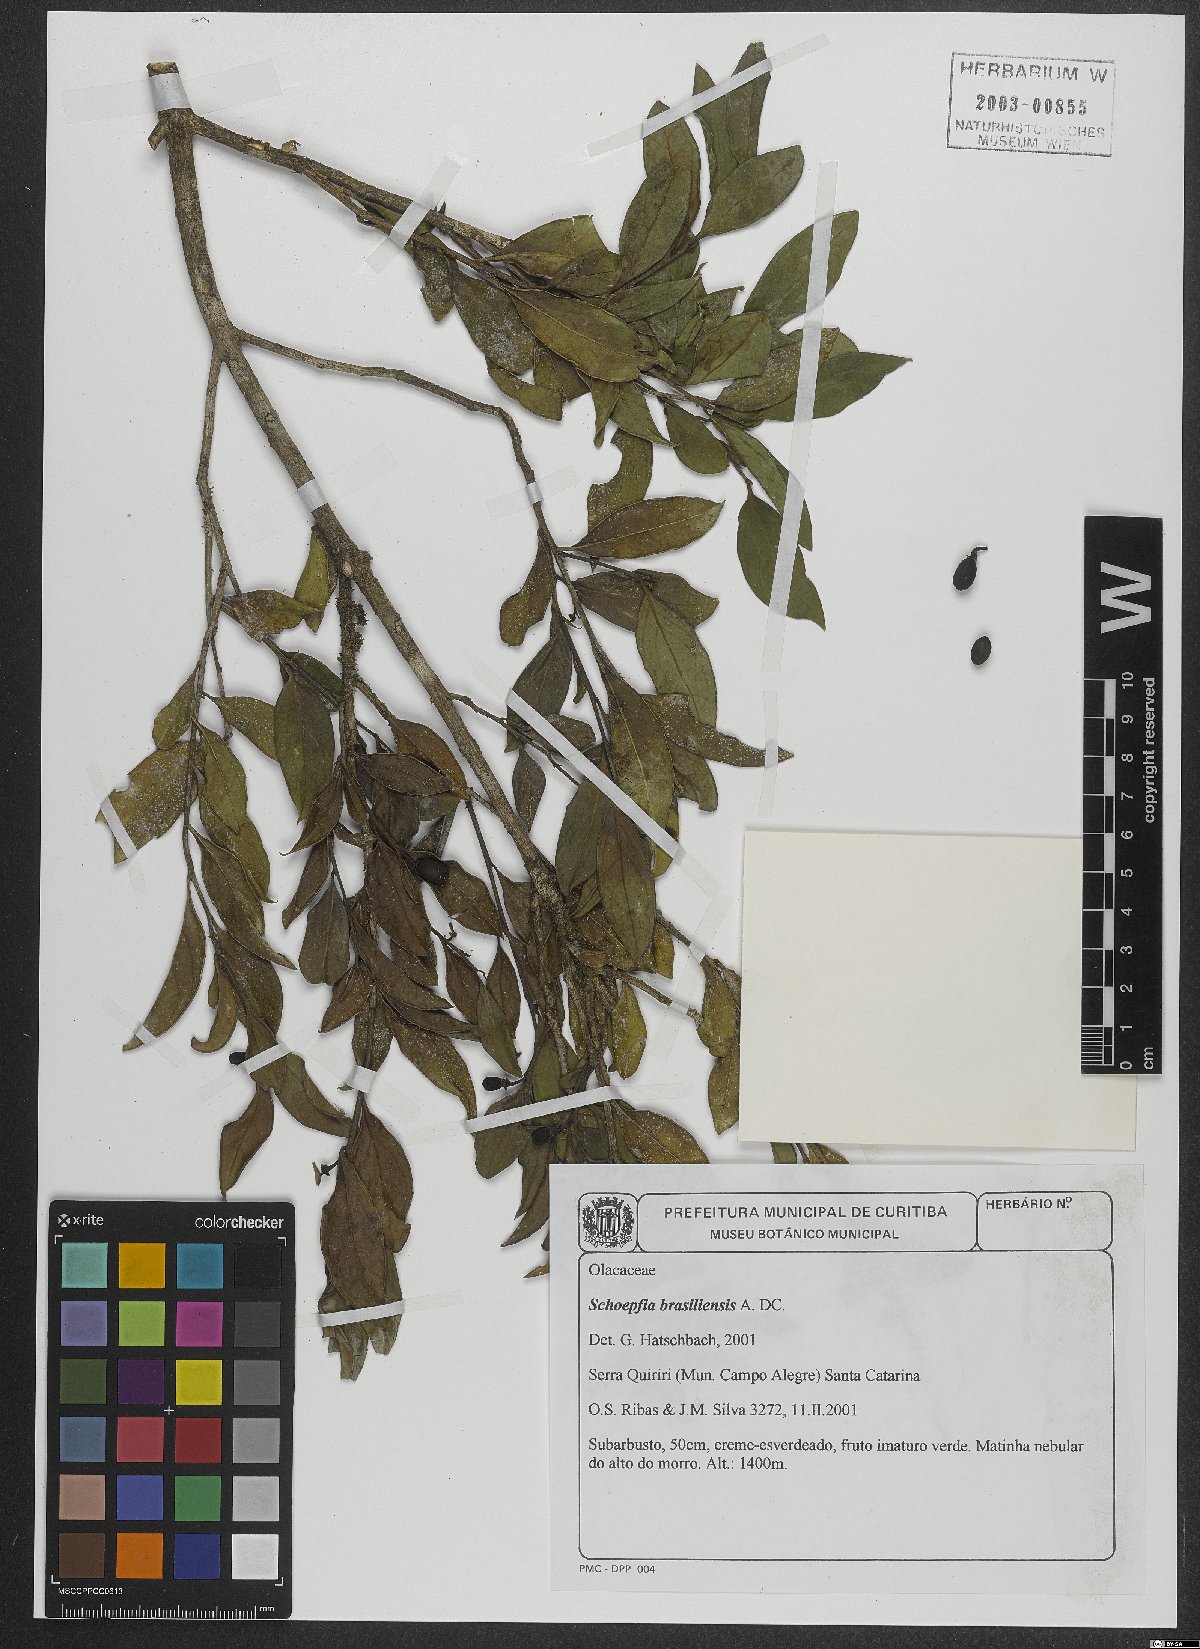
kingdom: Plantae
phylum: Tracheophyta
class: Magnoliopsida
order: Santalales
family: Schoepfiaceae
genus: Schoepfia
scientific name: Schoepfia brasiliensis
